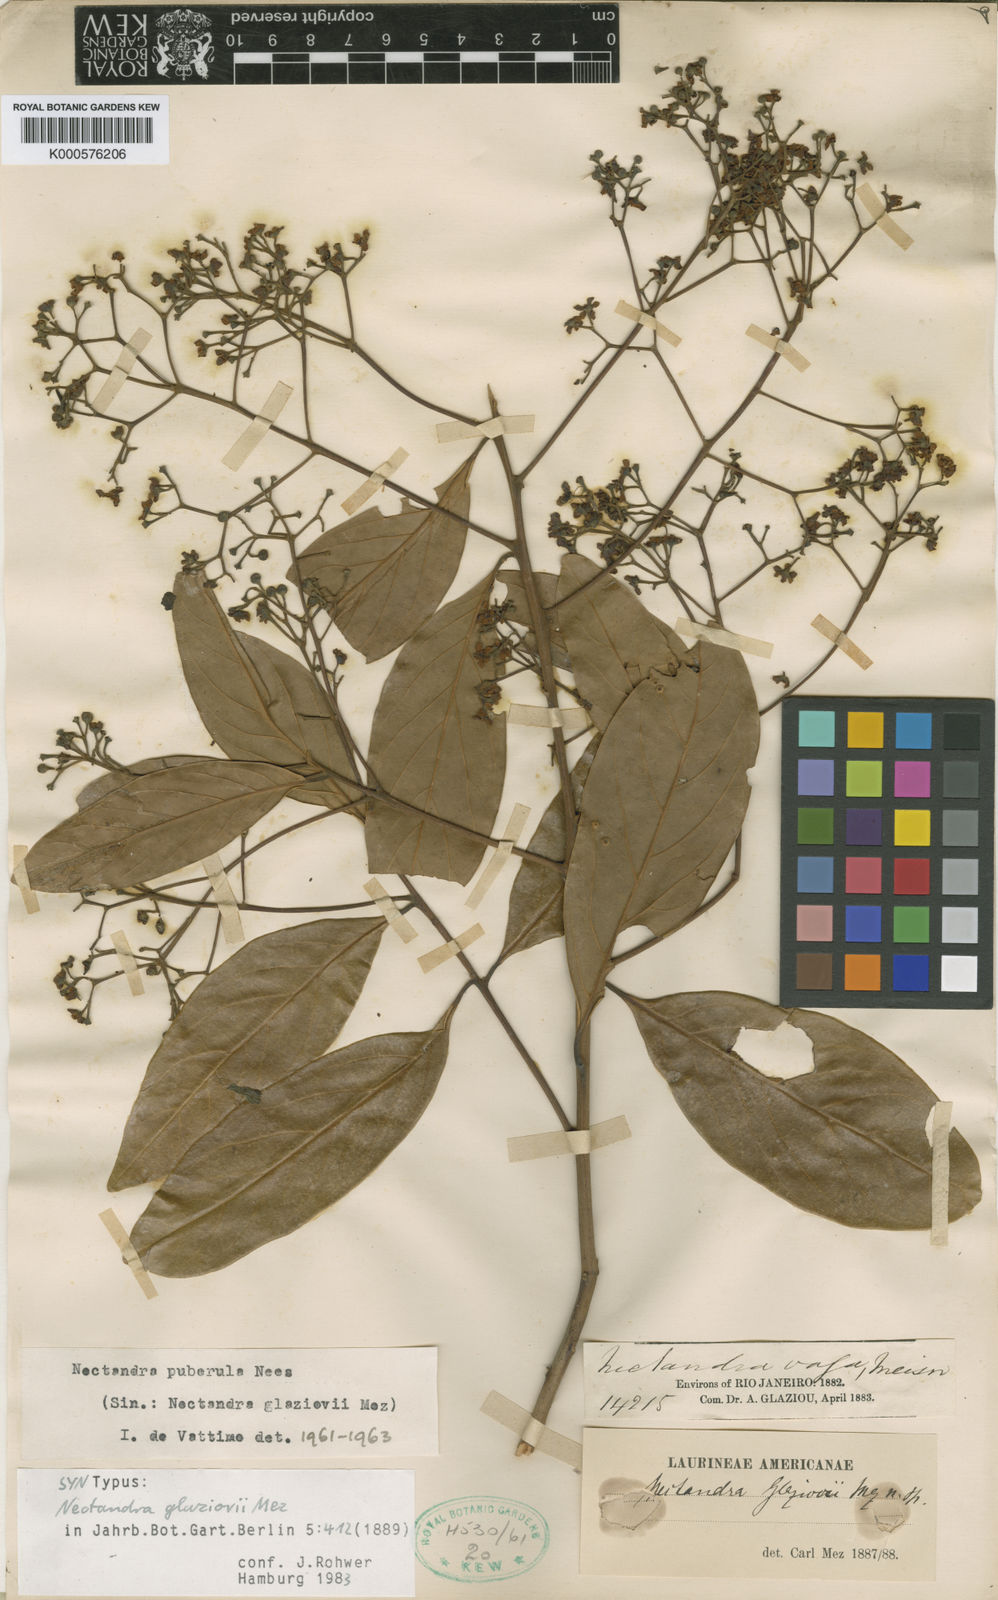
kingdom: Plantae
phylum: Tracheophyta
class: Magnoliopsida
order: Laurales
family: Lauraceae
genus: Nectandra
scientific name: Nectandra warmingii
